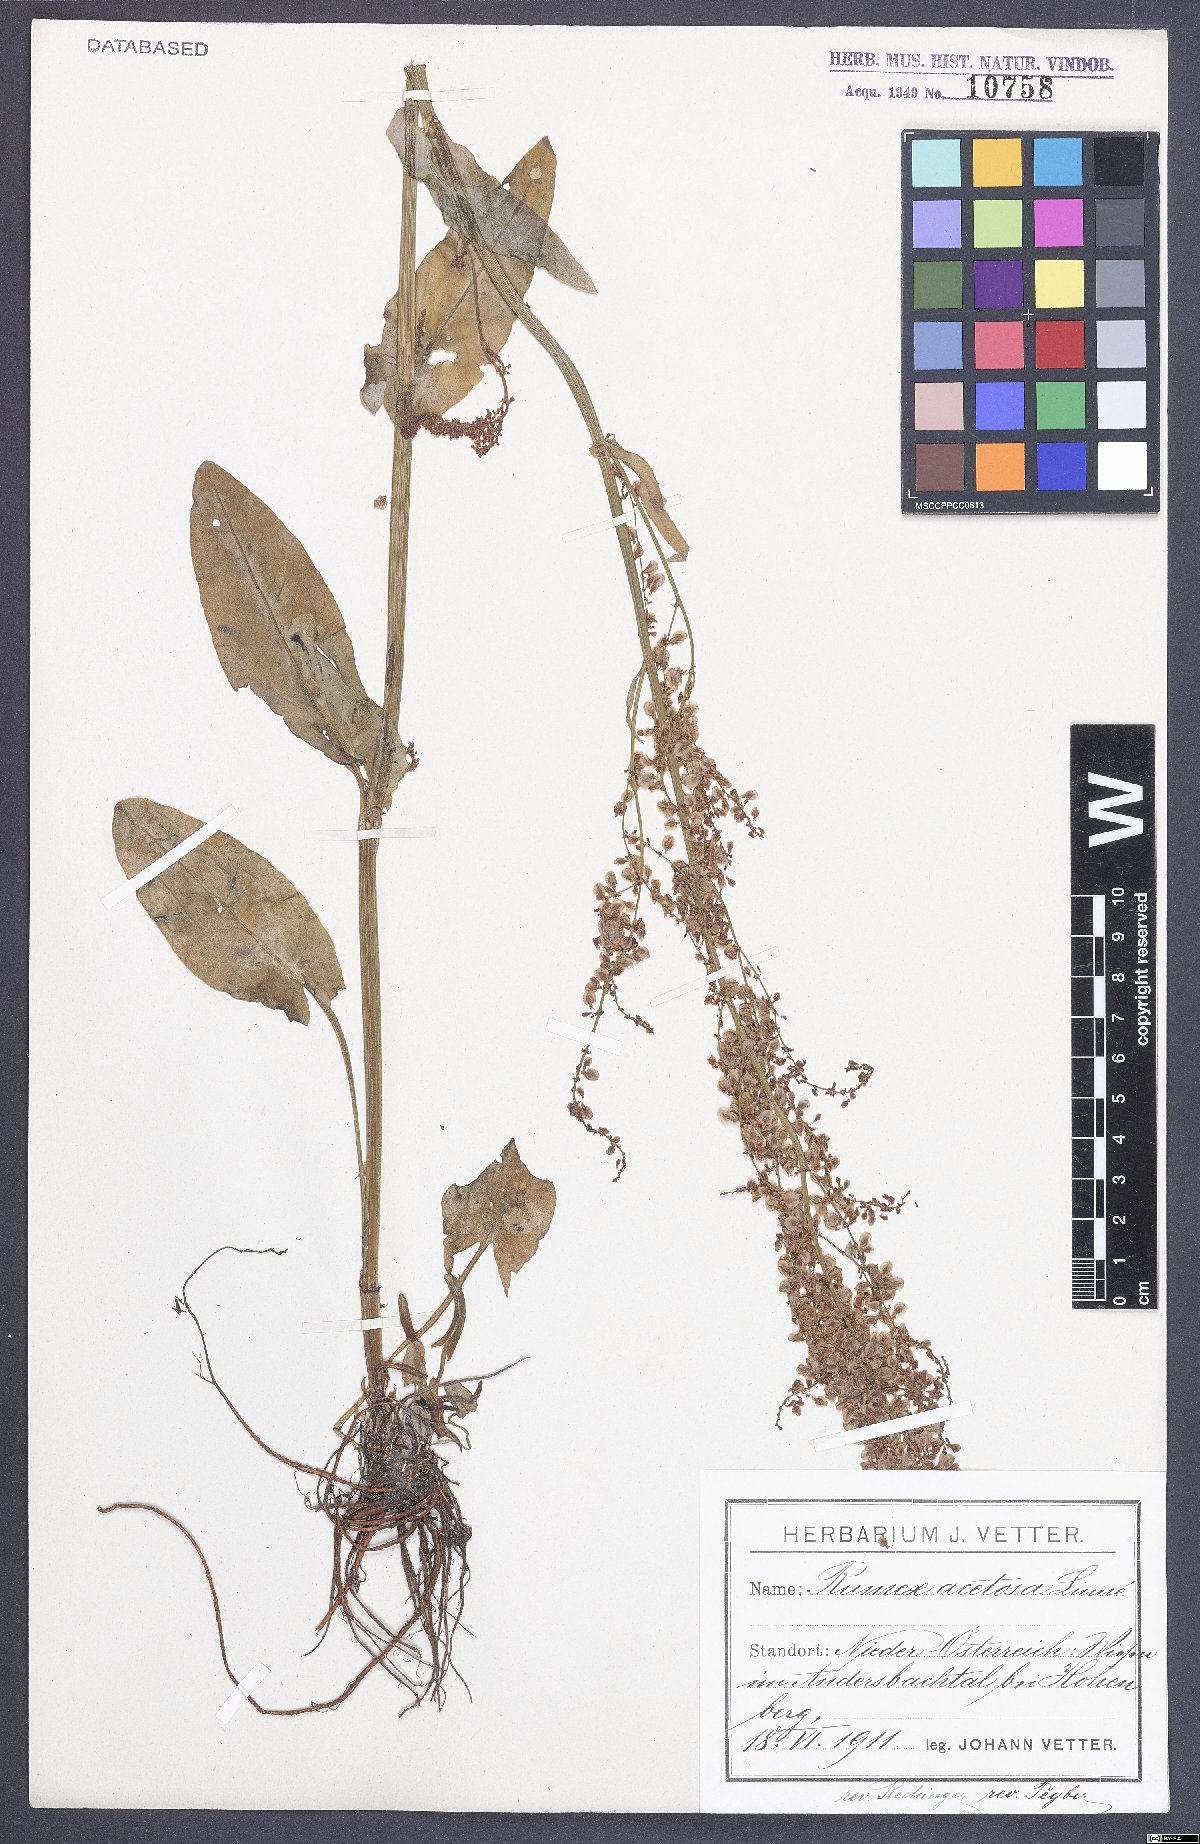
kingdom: Plantae
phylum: Tracheophyta
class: Magnoliopsida
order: Caryophyllales
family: Polygonaceae
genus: Rumex
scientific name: Rumex acetosa
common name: Garden sorrel
